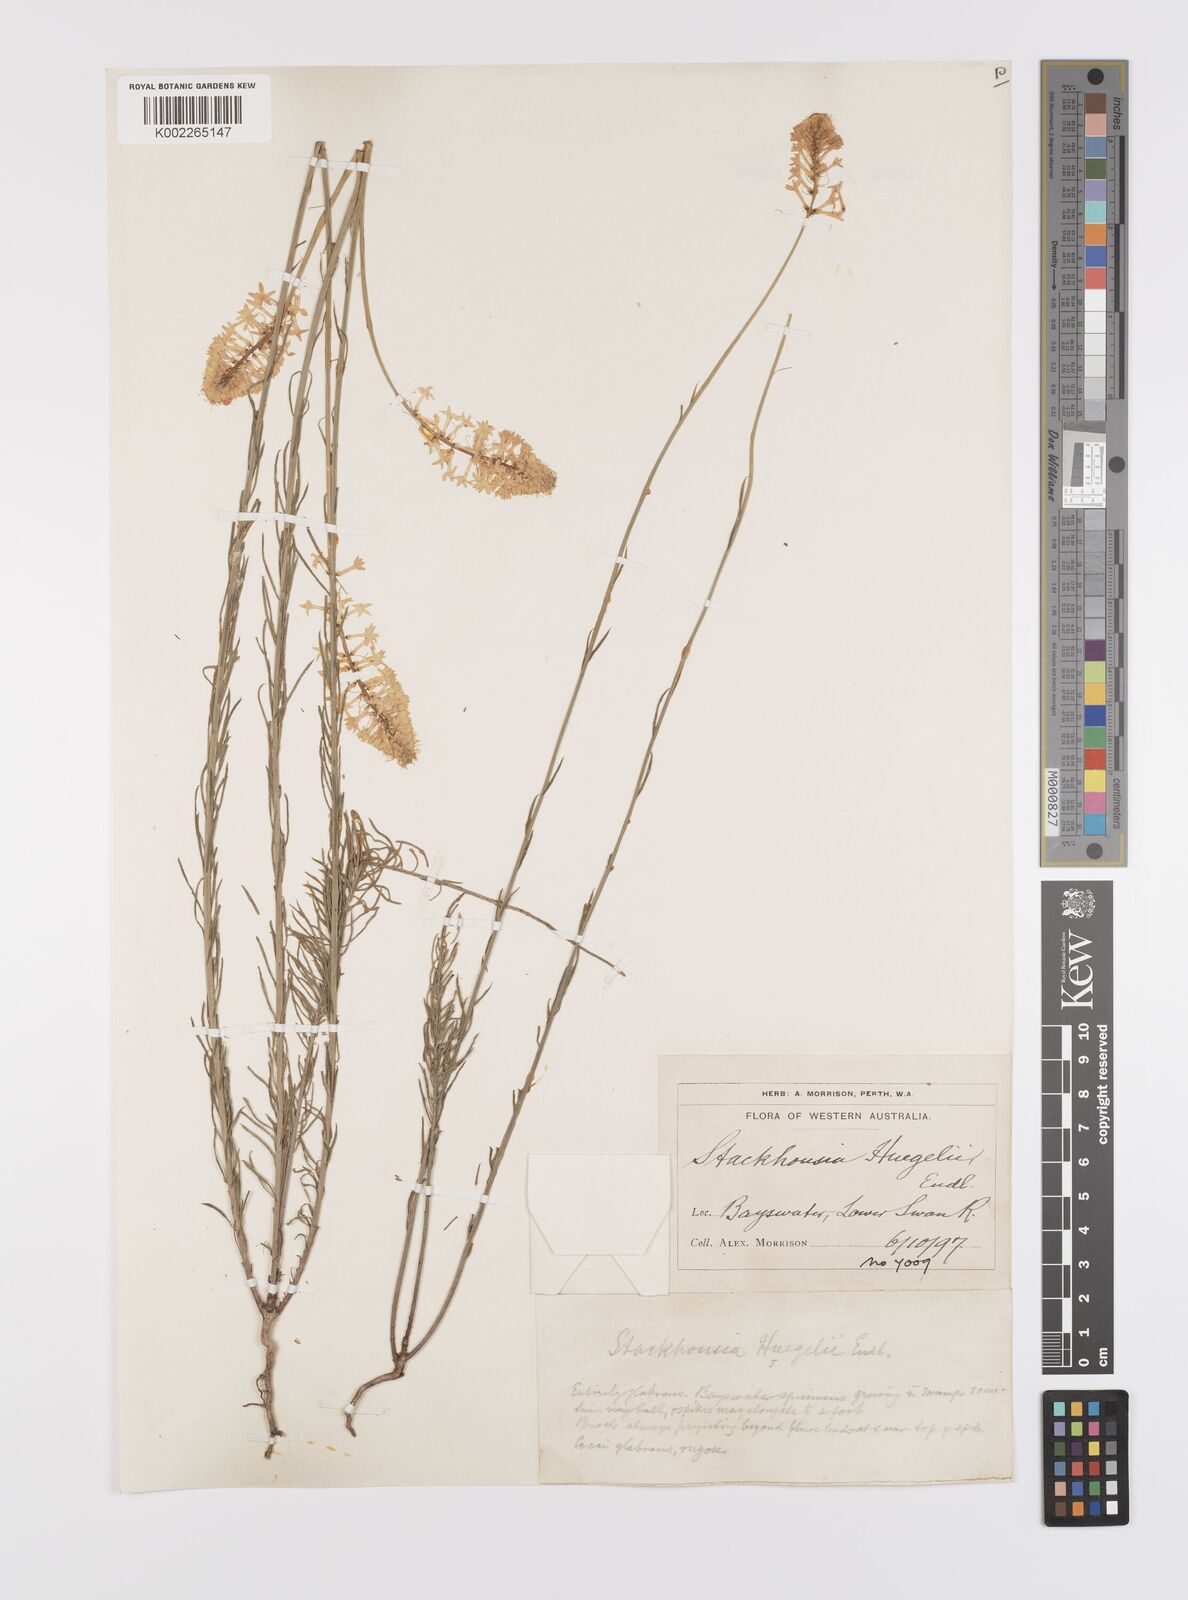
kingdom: Plantae
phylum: Tracheophyta
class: Magnoliopsida
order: Celastrales
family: Celastraceae
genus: Stackhousia
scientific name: Stackhousia monogyna
